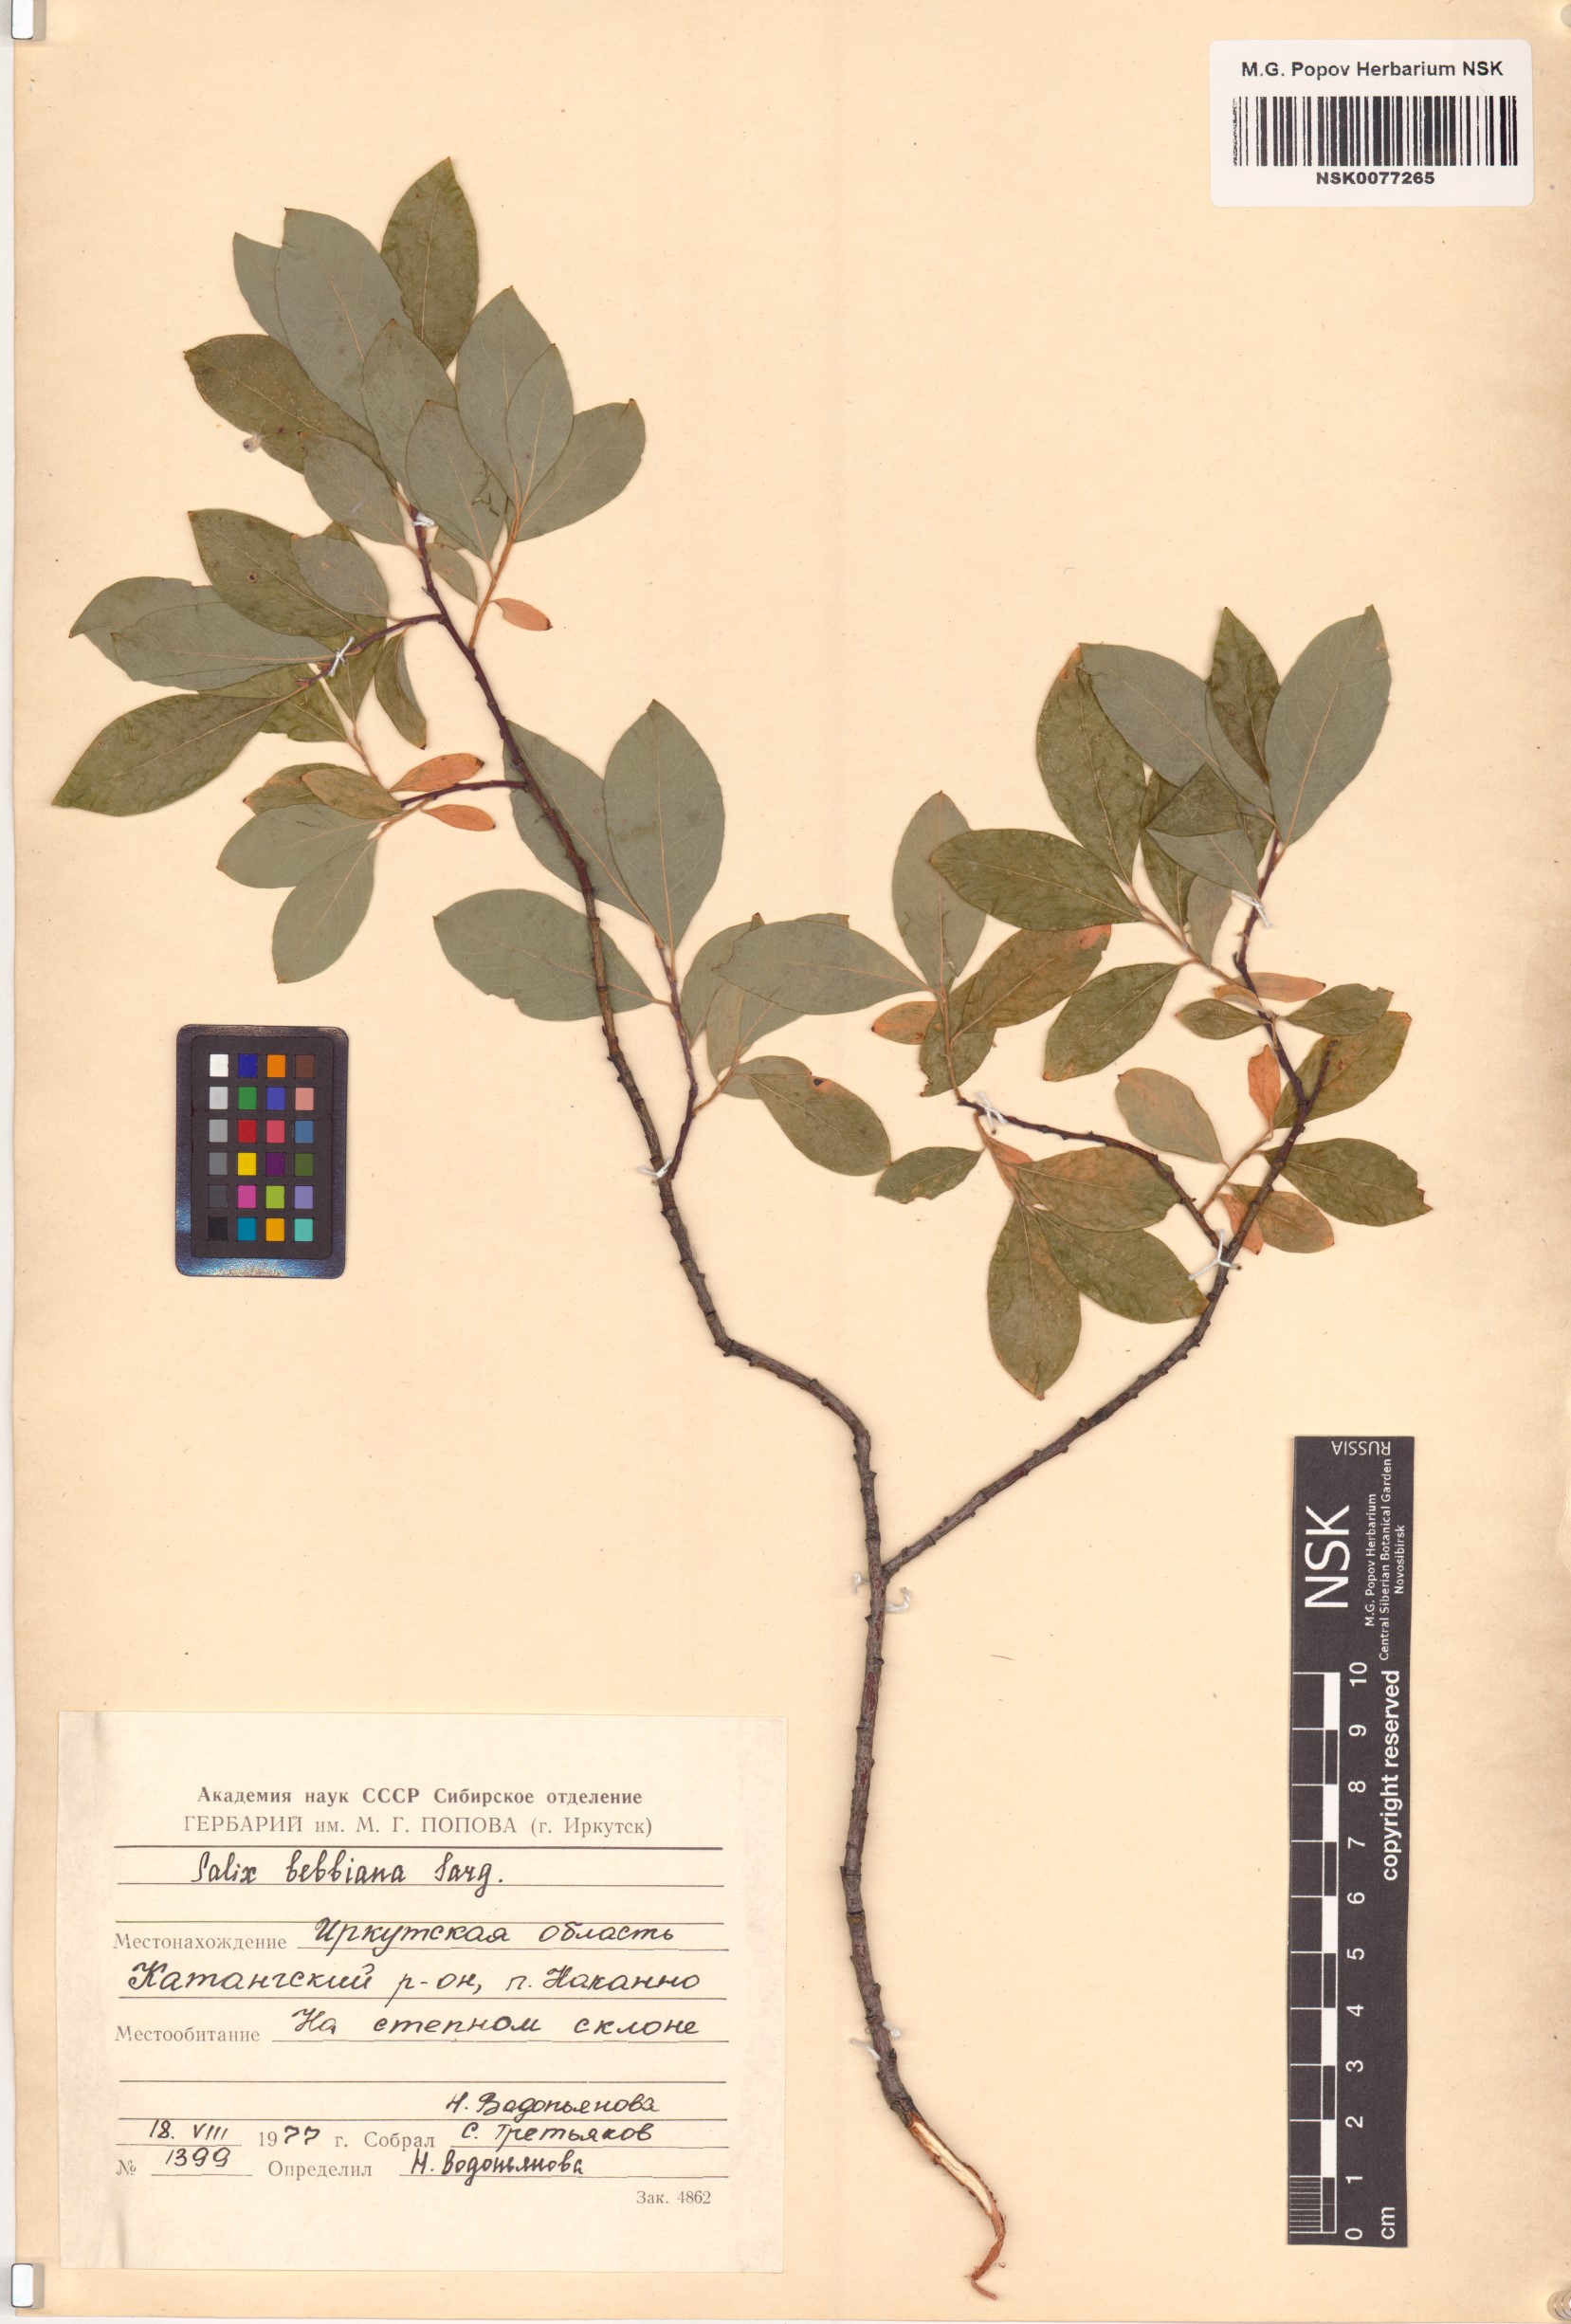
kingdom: Plantae
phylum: Tracheophyta
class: Magnoliopsida
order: Malpighiales
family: Salicaceae
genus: Salix
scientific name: Salix bebbiana
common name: Bebb's willow
